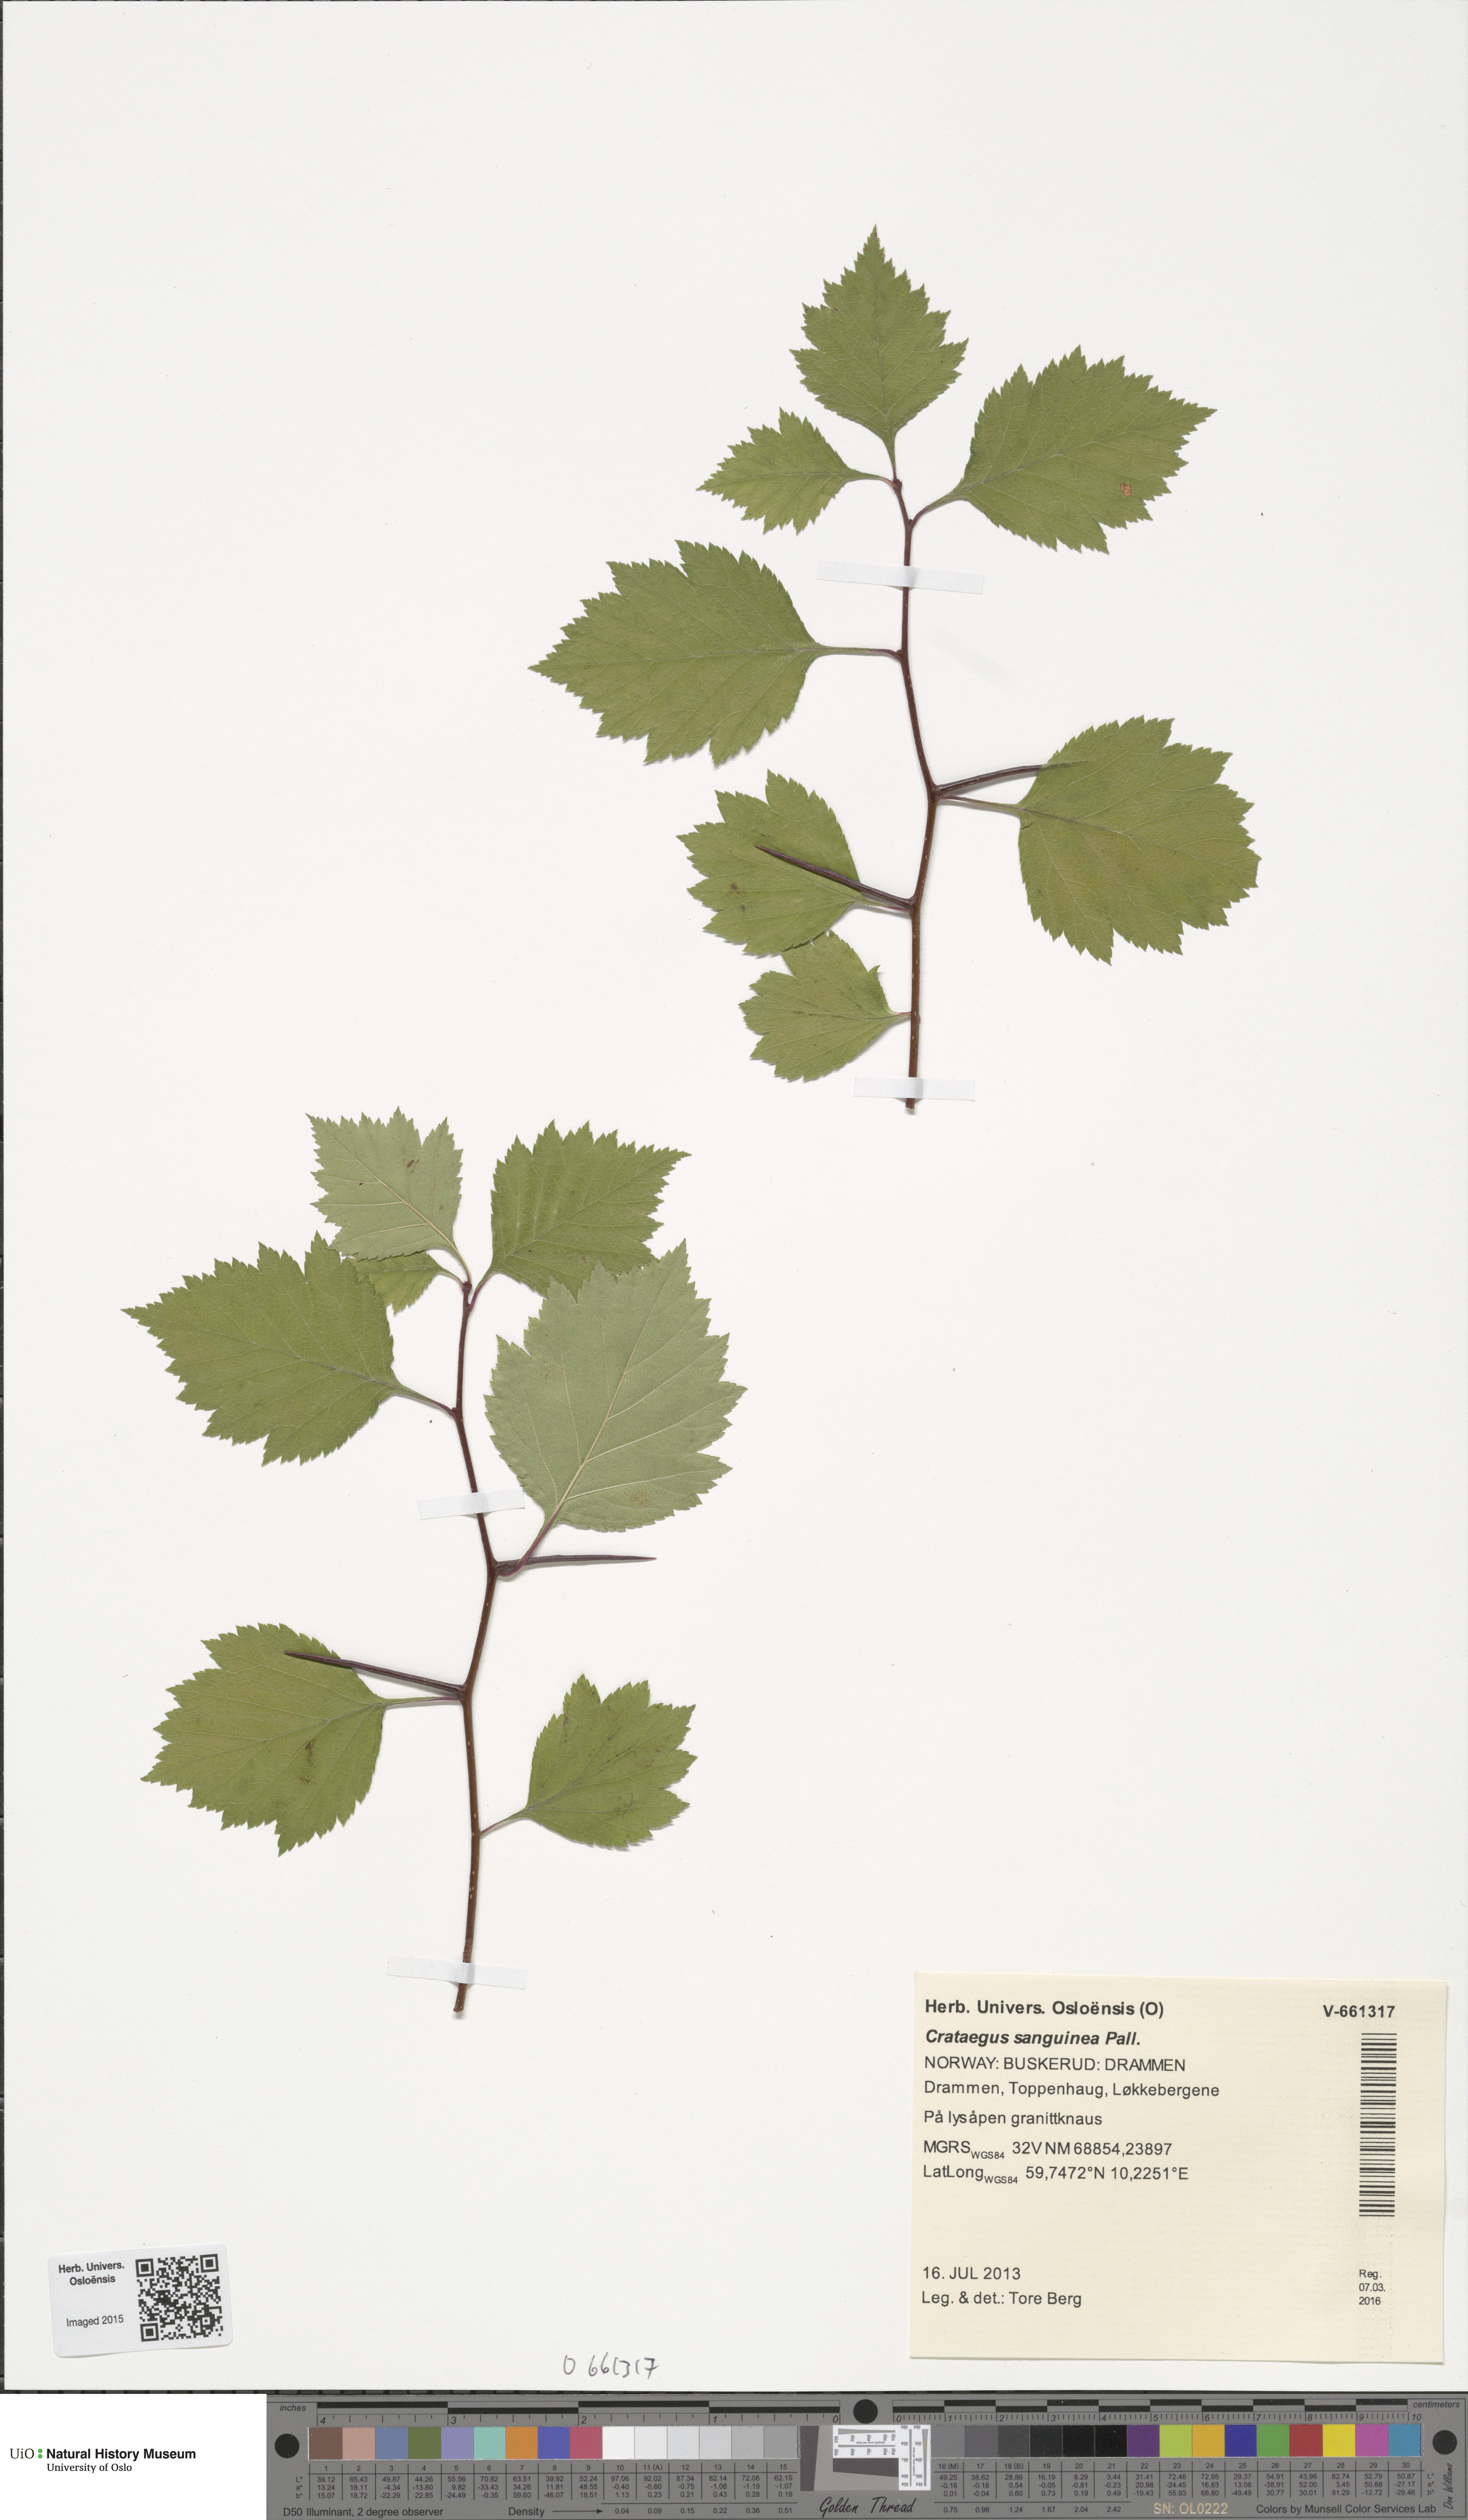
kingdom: Plantae
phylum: Tracheophyta
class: Magnoliopsida
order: Rosales
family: Rosaceae
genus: Crataegus
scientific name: Crataegus sanguinea
